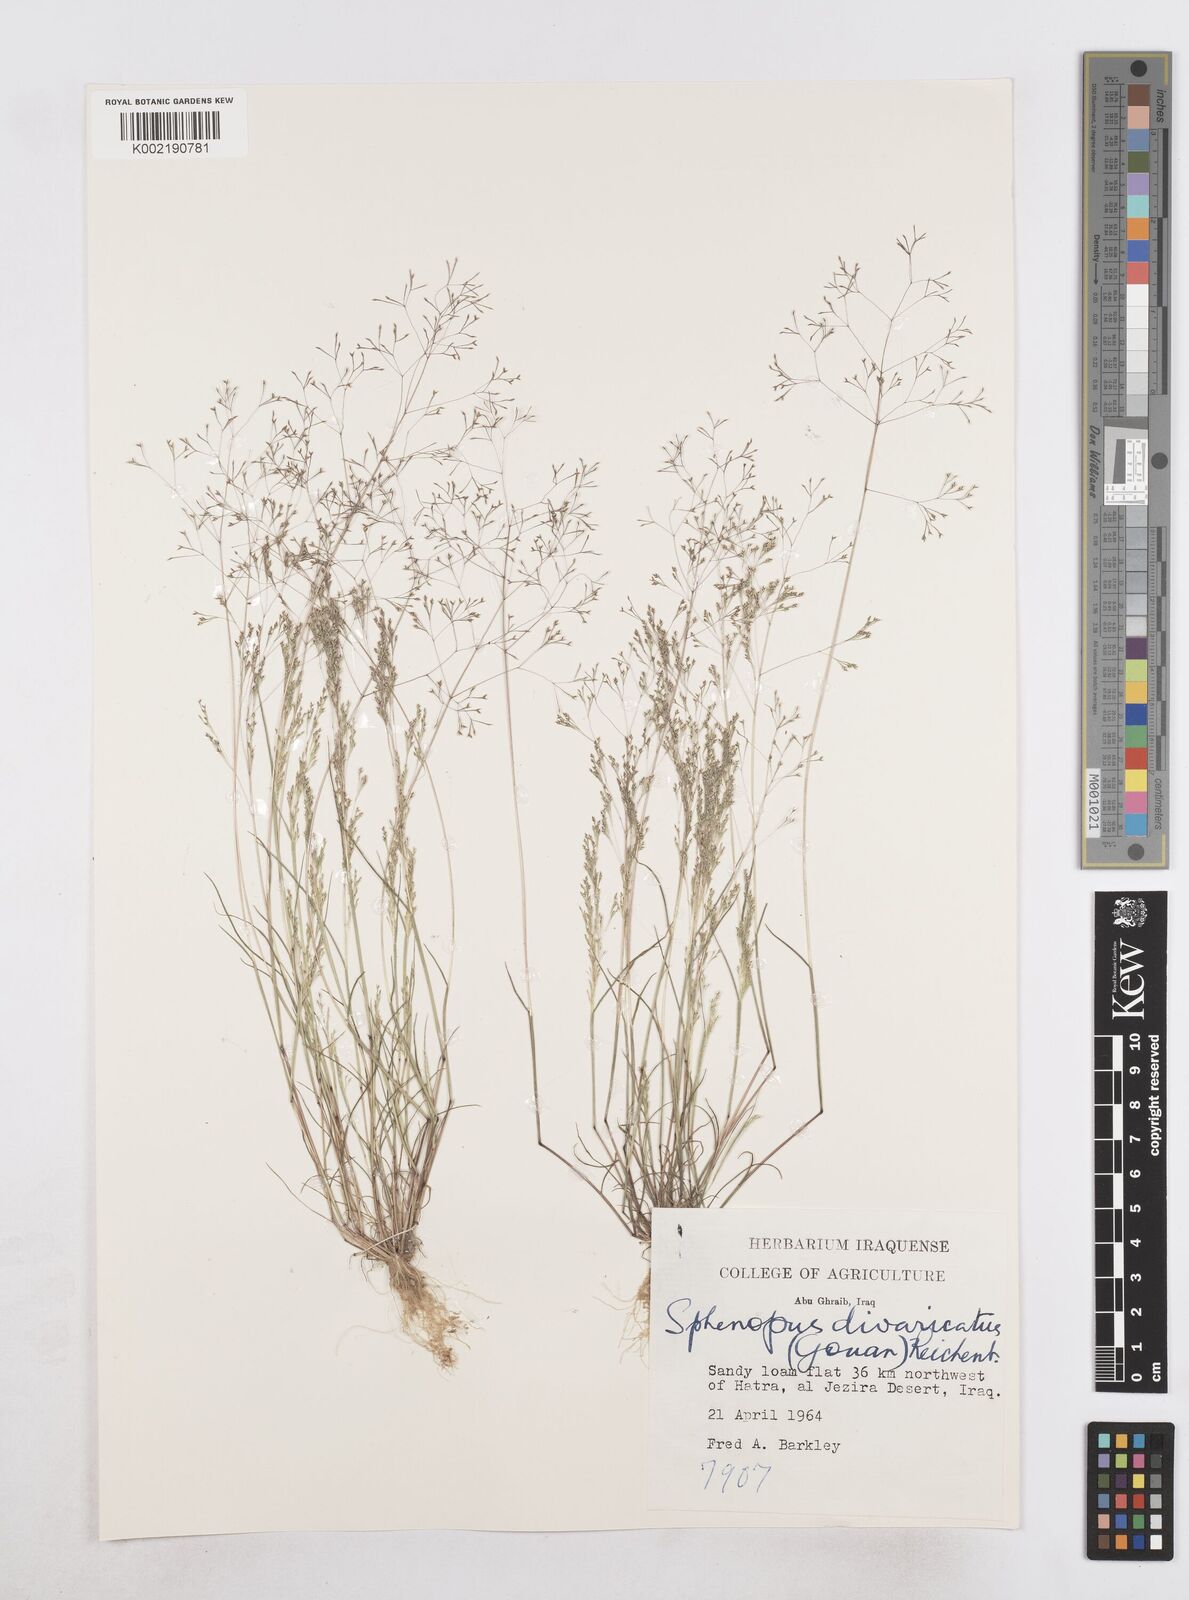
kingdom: Plantae
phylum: Tracheophyta
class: Liliopsida
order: Poales
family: Poaceae
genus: Sphenopus
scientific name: Sphenopus divaricatus
